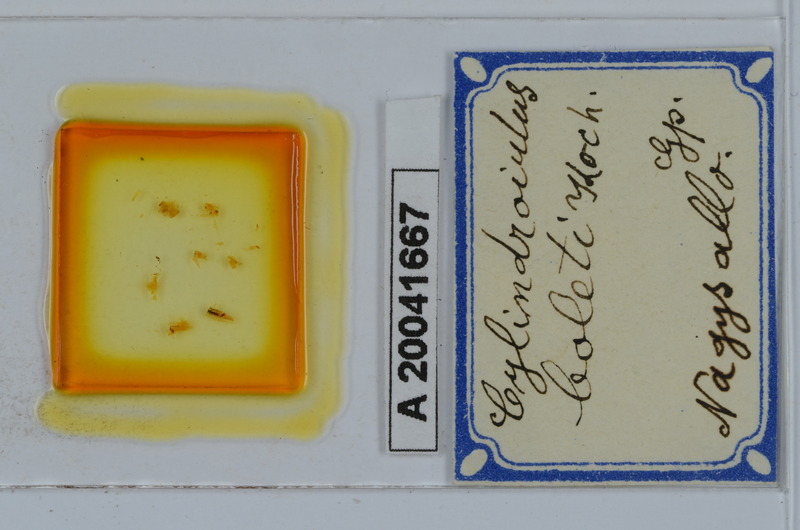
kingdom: Animalia
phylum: Arthropoda
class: Diplopoda
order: Julida
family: Julidae
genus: Cylindroiulus
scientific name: Cylindroiulus boleti
